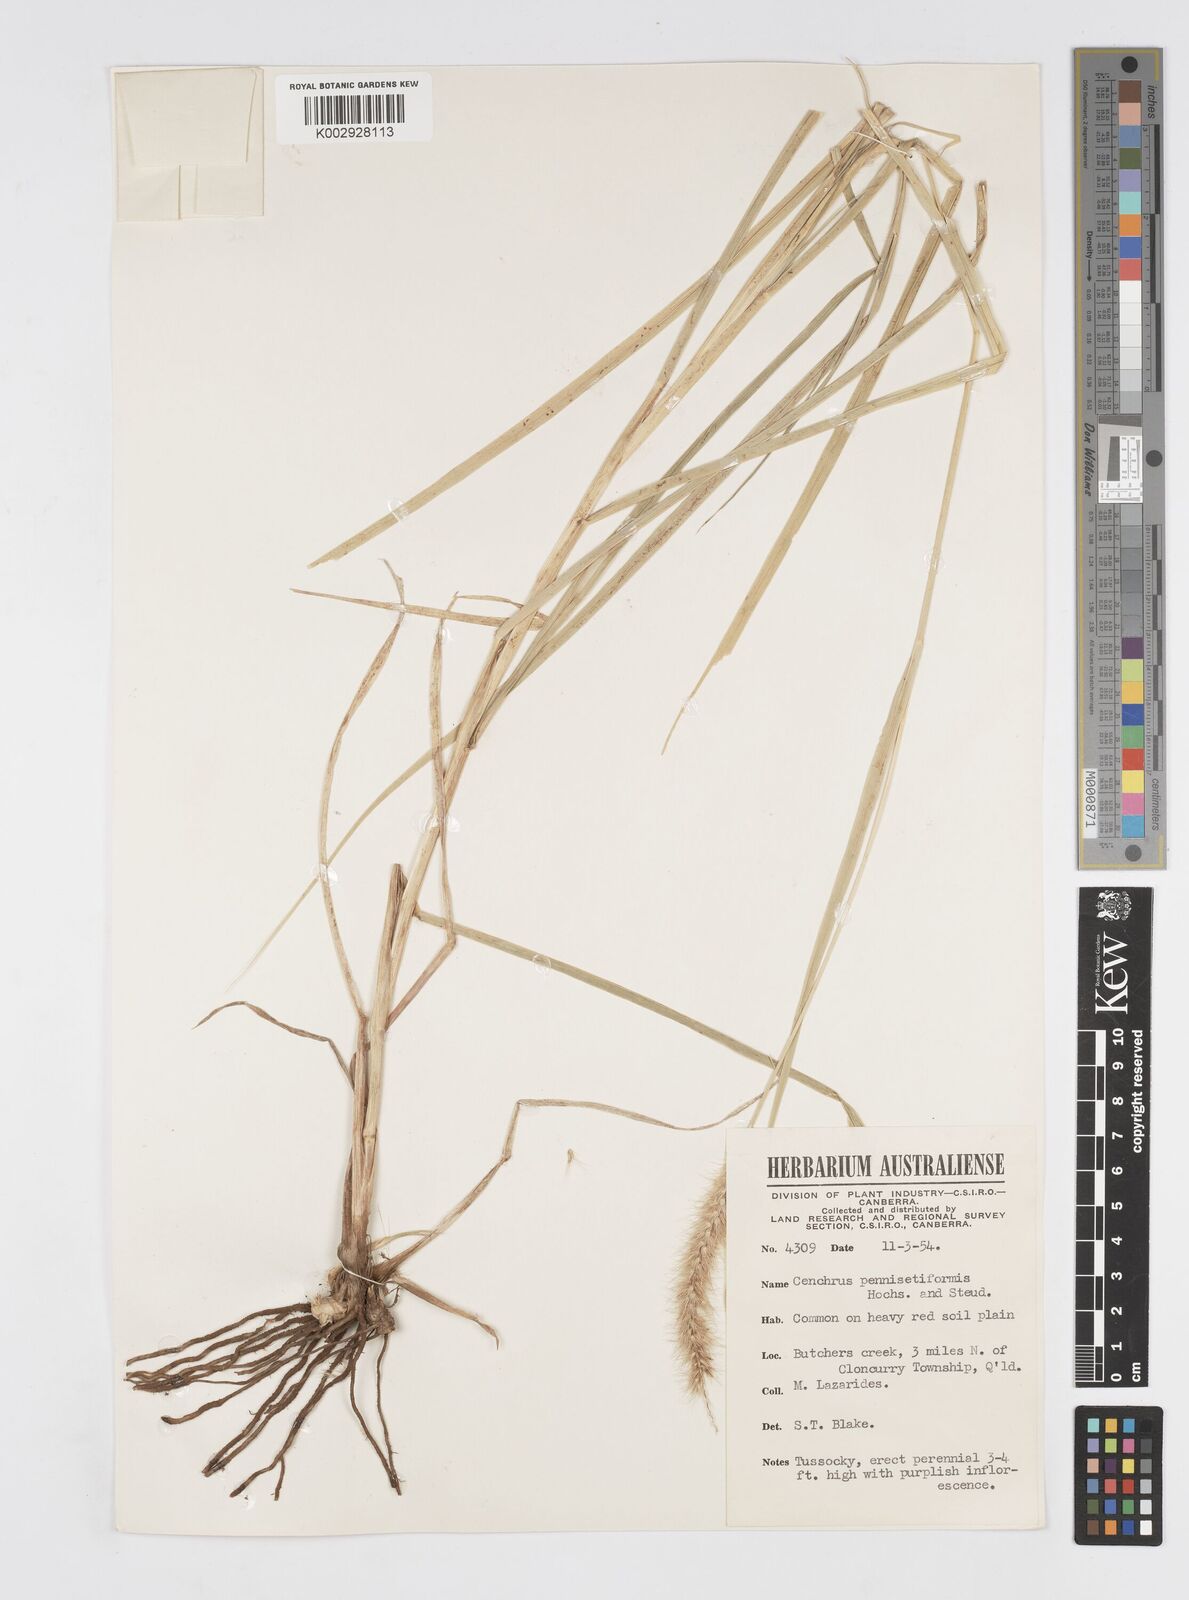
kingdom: Plantae
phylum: Tracheophyta
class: Liliopsida
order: Poales
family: Poaceae
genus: Cenchrus
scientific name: Cenchrus ciliaris
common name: Buffelgrass
